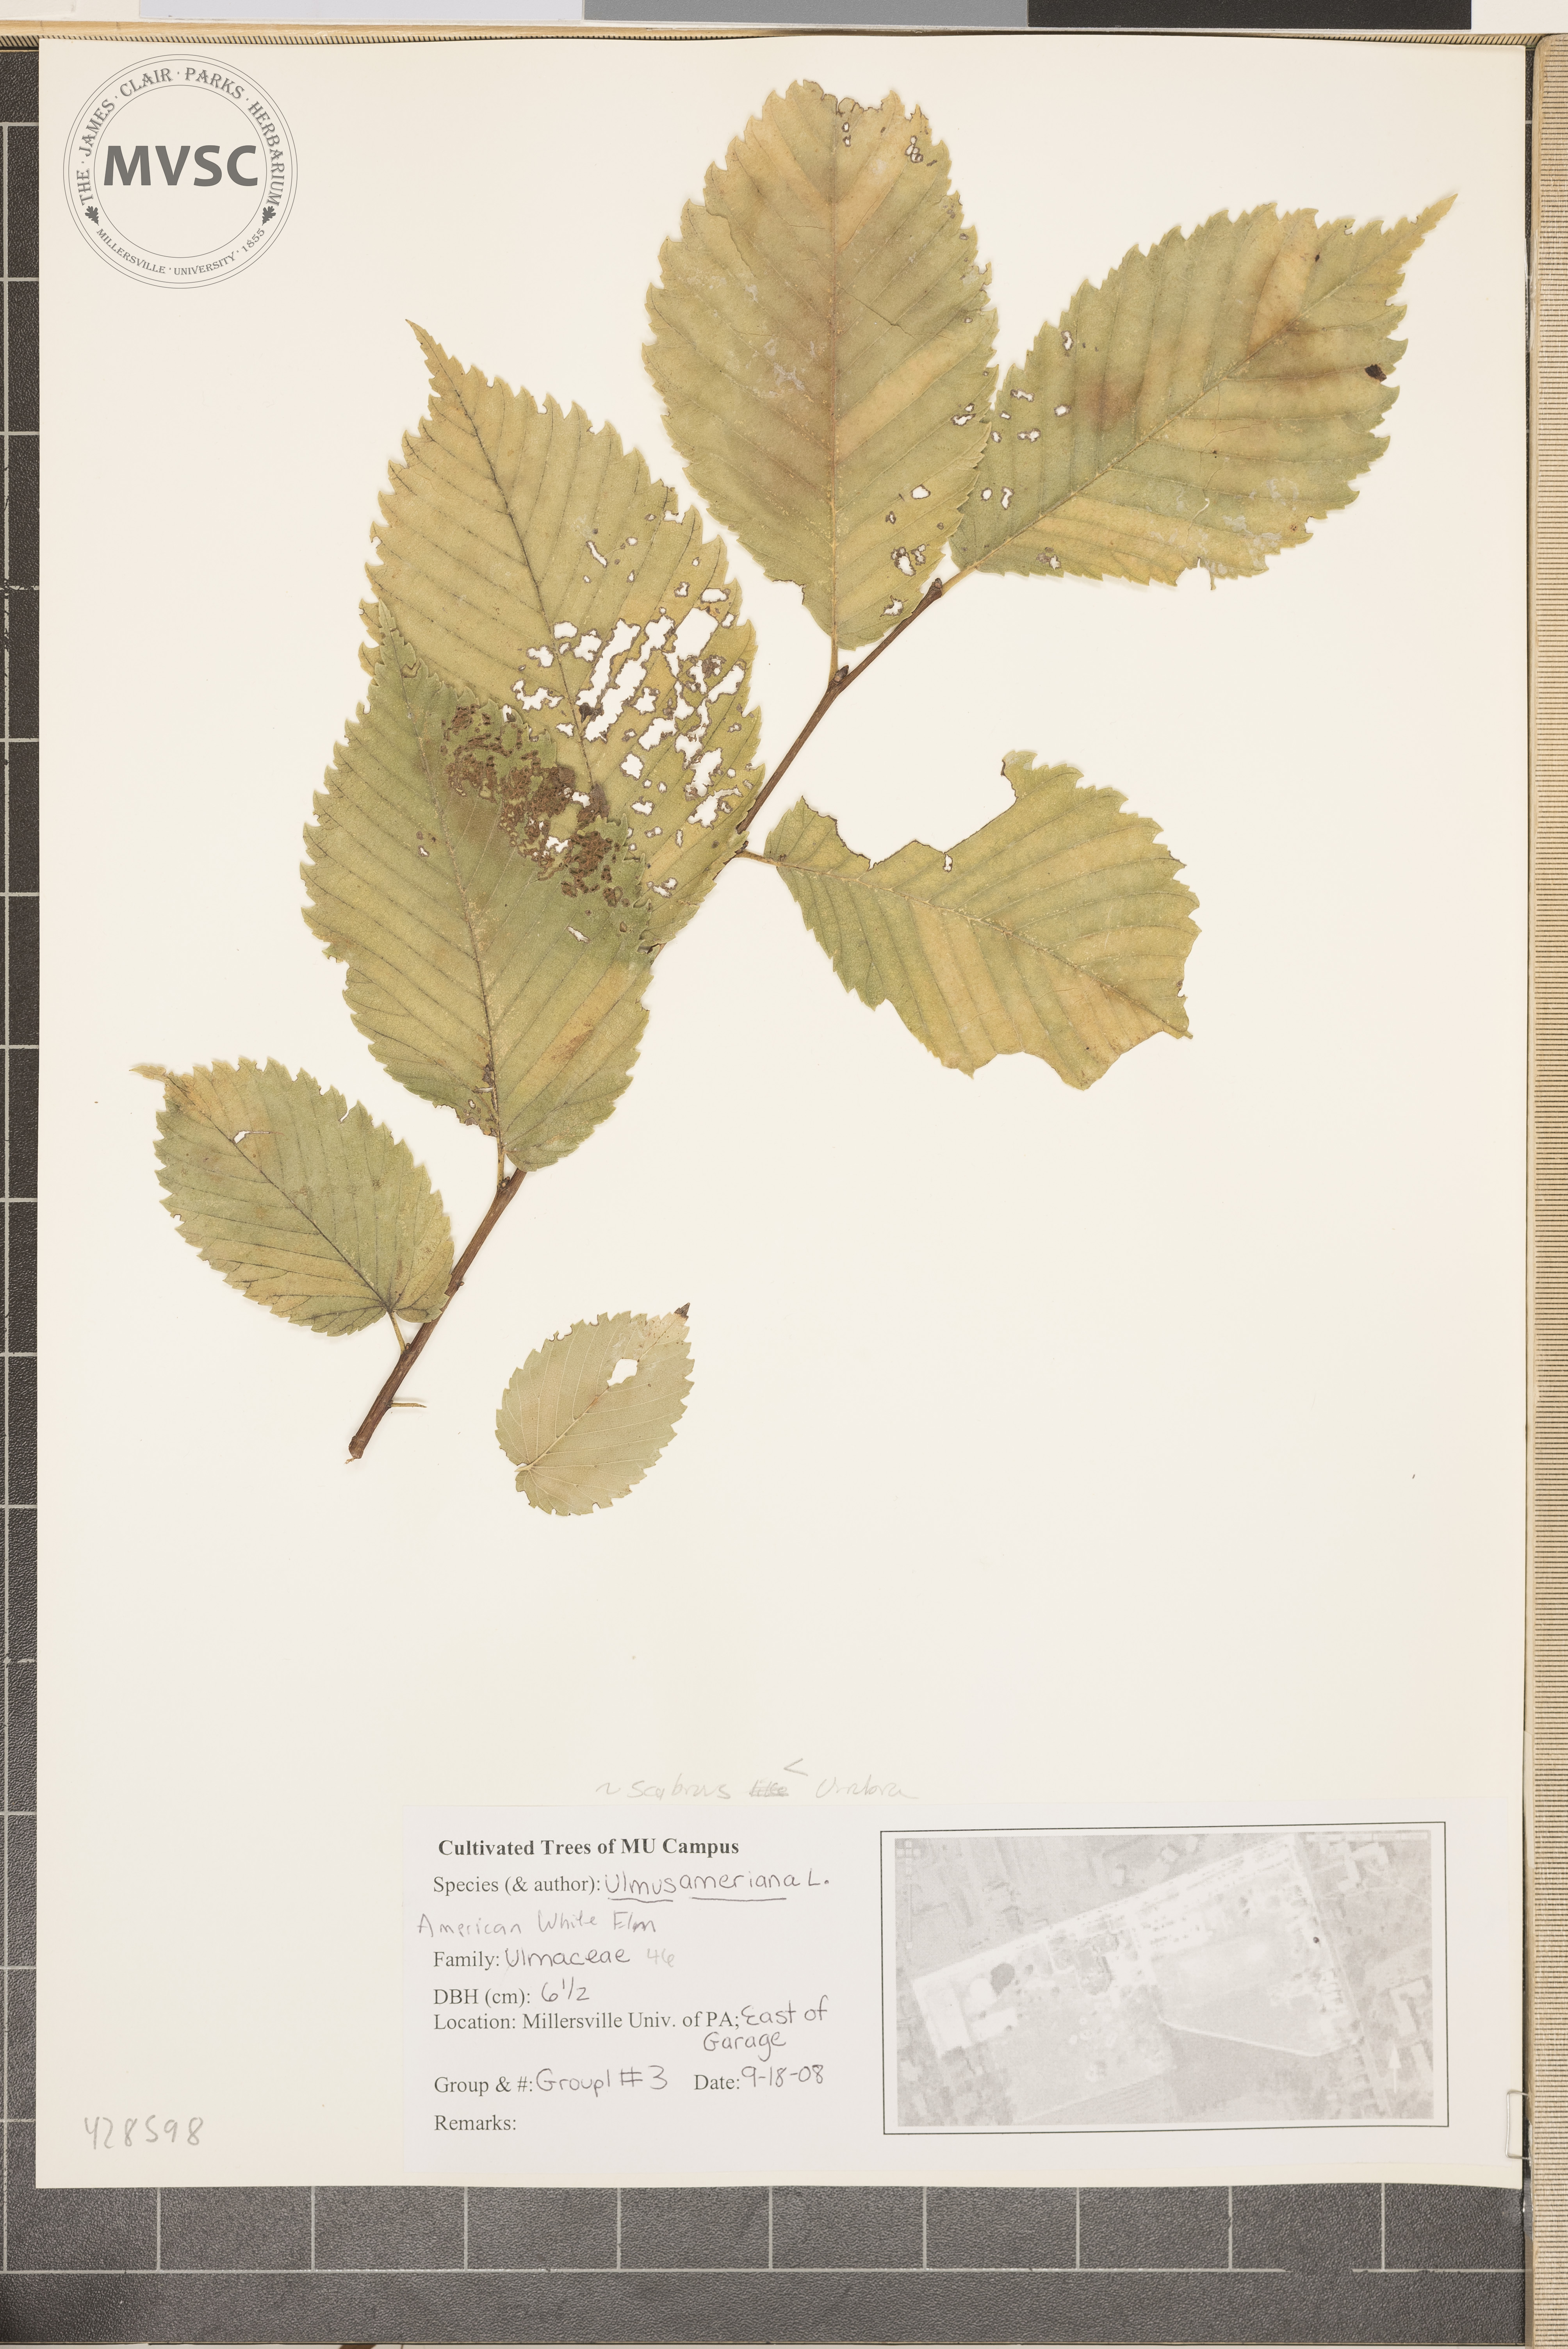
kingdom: Plantae
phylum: Tracheophyta
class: Magnoliopsida
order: Rosales
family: Ulmaceae
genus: Ulmus
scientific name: Ulmus americana
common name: American Elm
